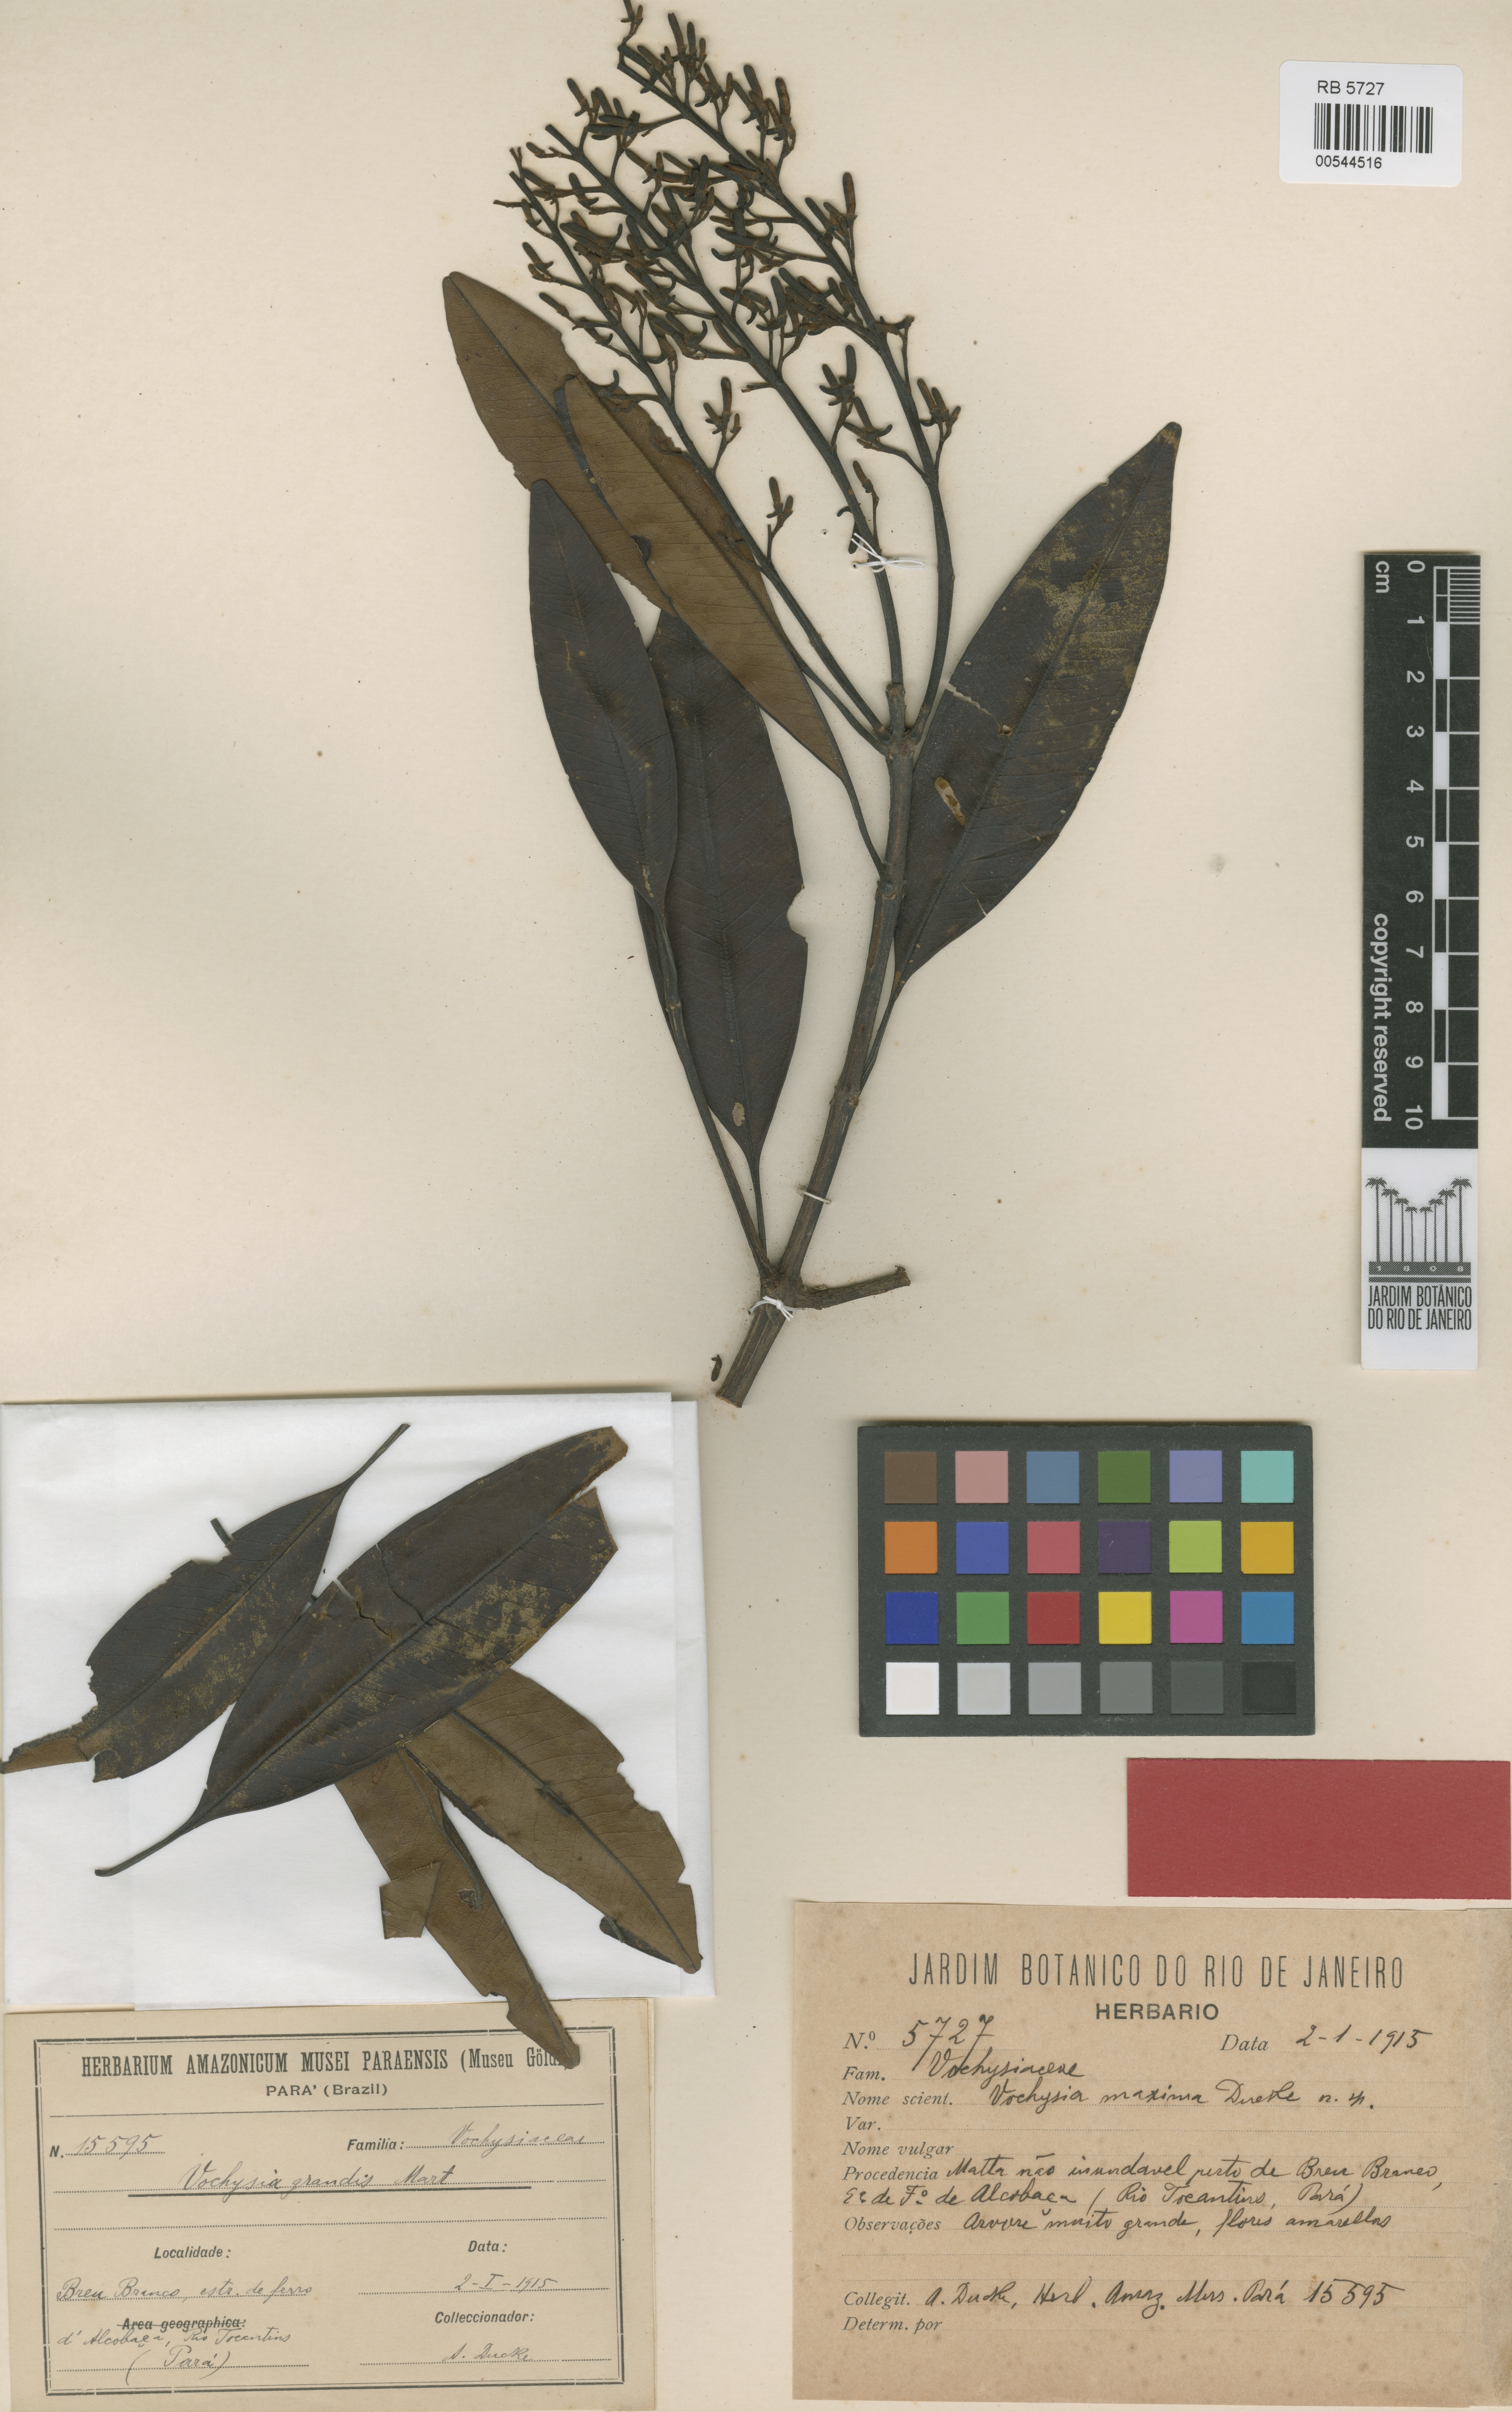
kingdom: Plantae
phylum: Tracheophyta
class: Magnoliopsida
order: Myrtales
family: Vochysiaceae
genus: Vochysia
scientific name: Vochysia maxima
